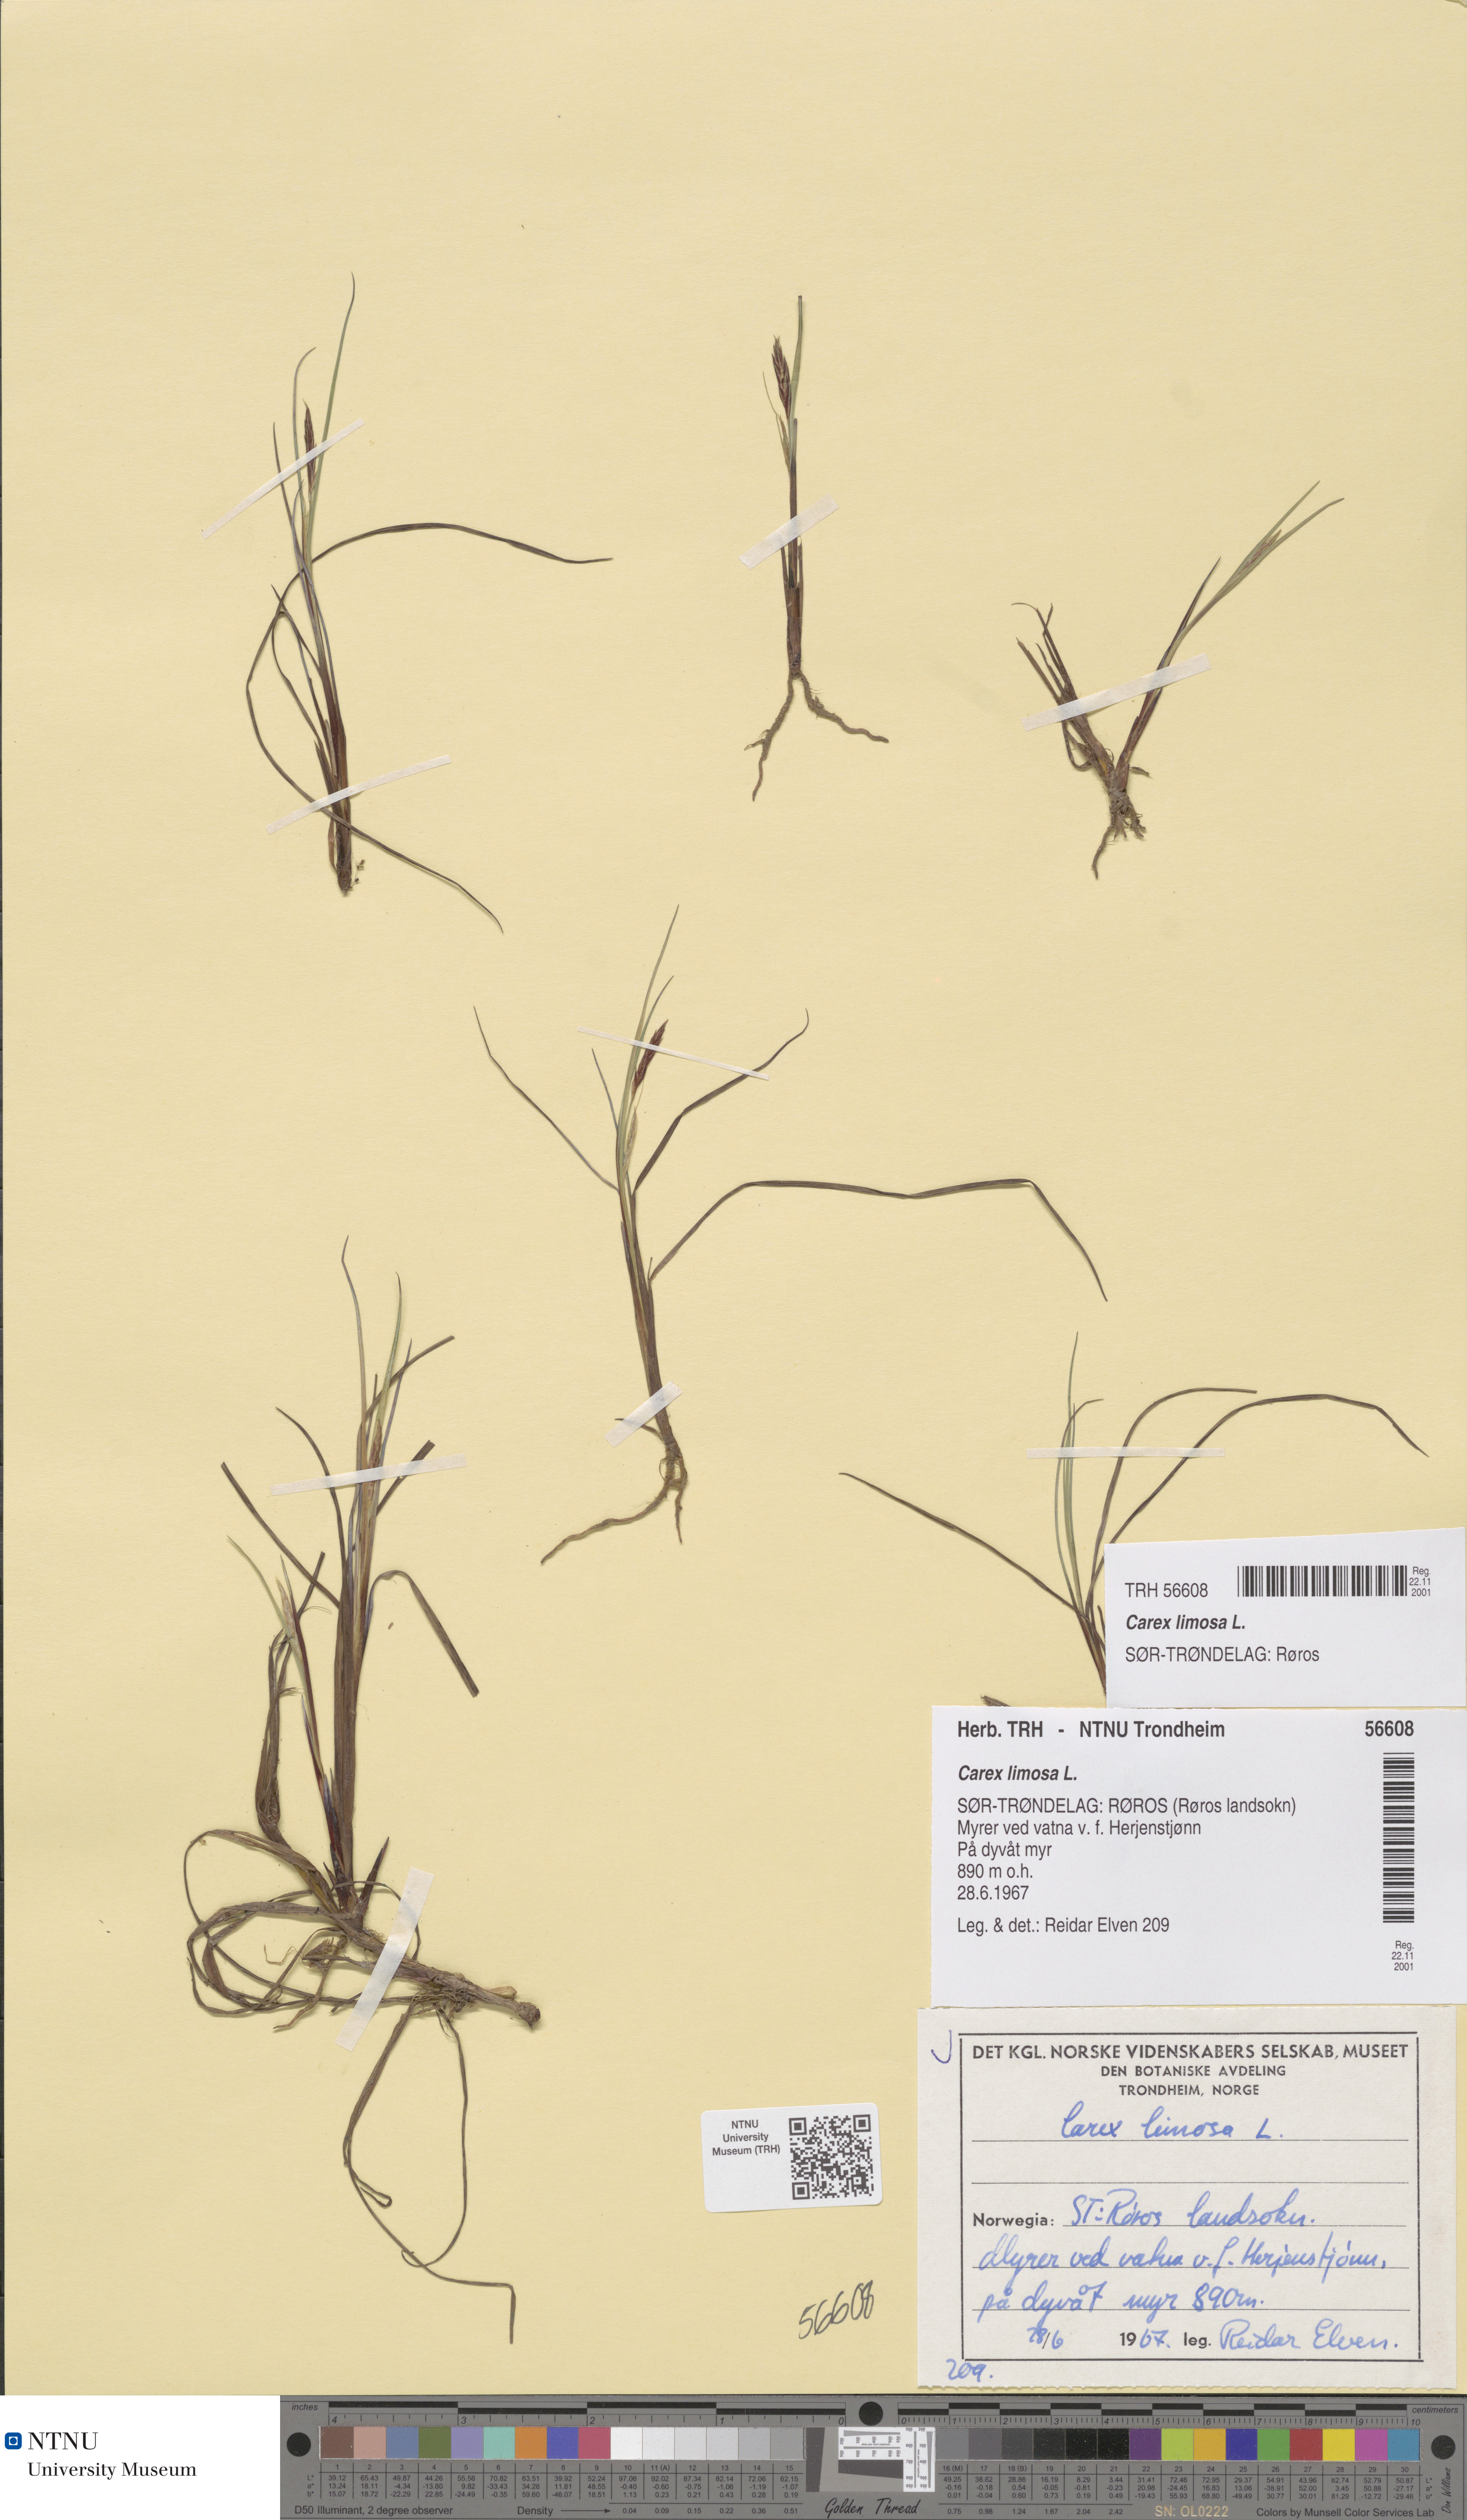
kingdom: Plantae
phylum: Tracheophyta
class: Liliopsida
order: Poales
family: Cyperaceae
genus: Carex
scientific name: Carex limosa
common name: Bog sedge
